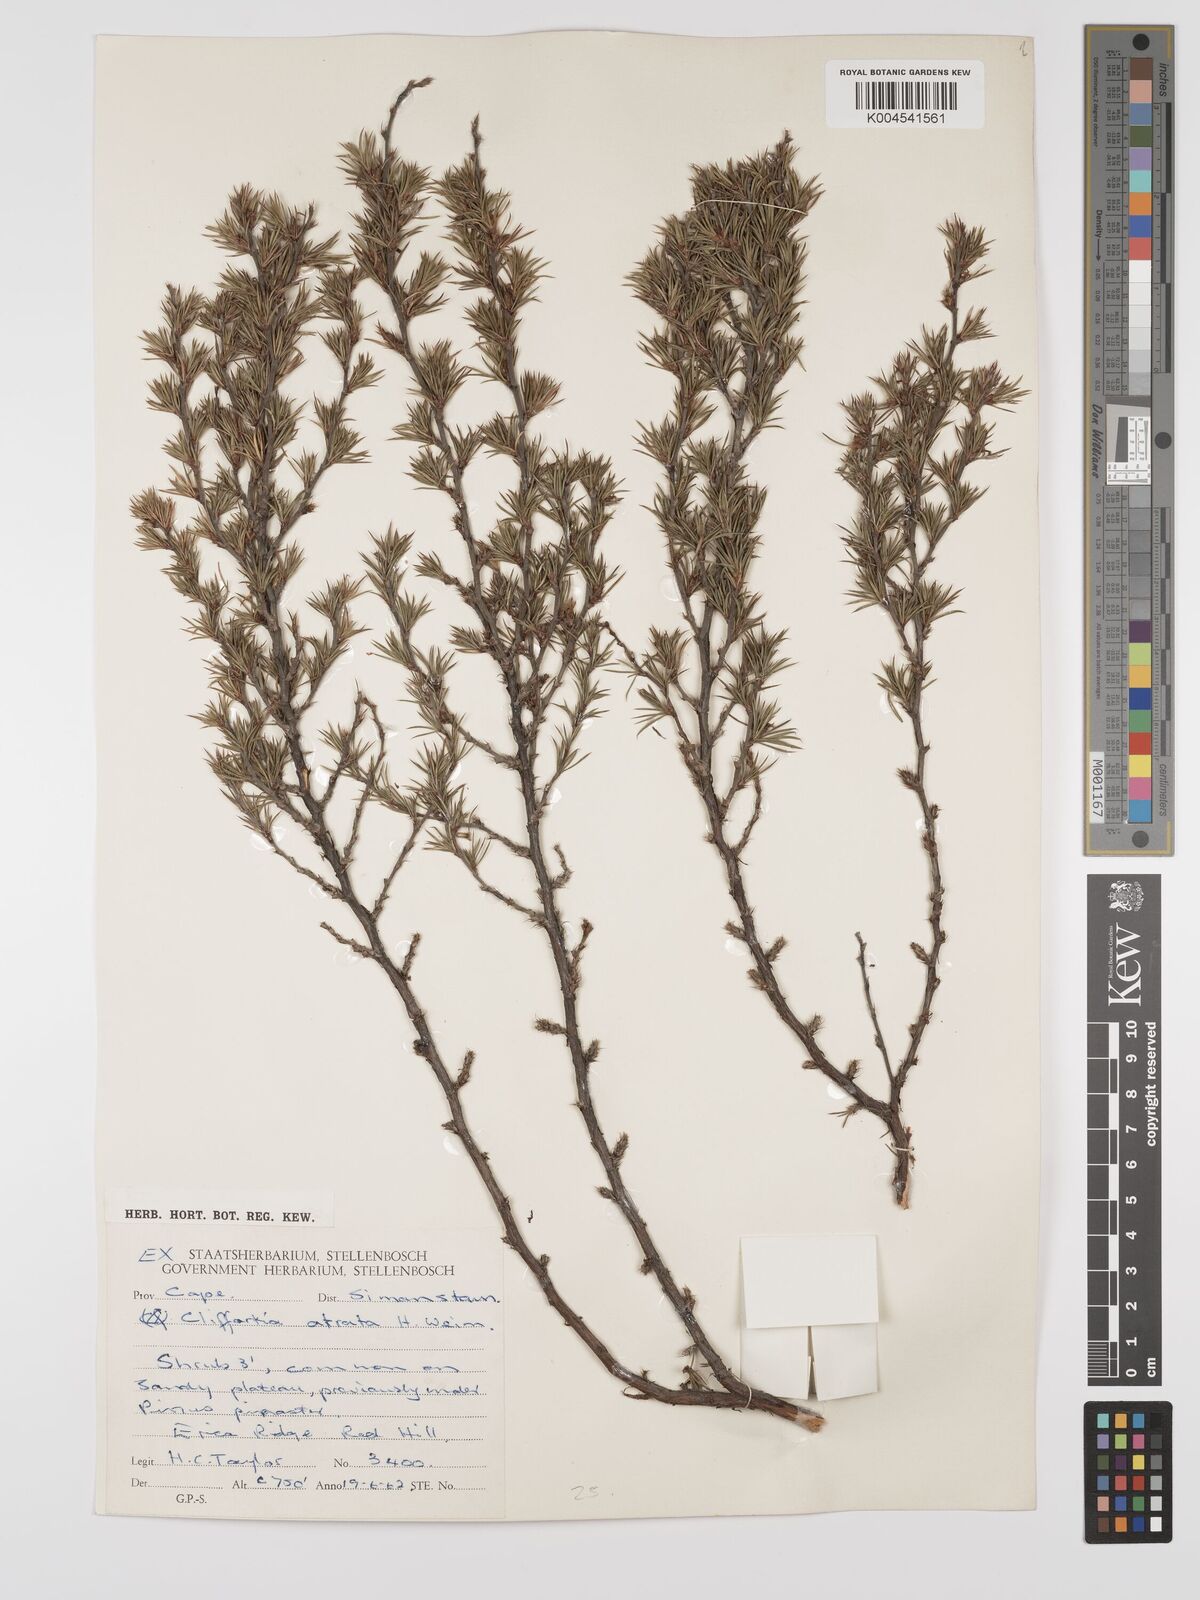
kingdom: Plantae
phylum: Tracheophyta
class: Magnoliopsida
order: Rosales
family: Rosaceae
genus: Cliffortia
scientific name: Cliffortia atrata
